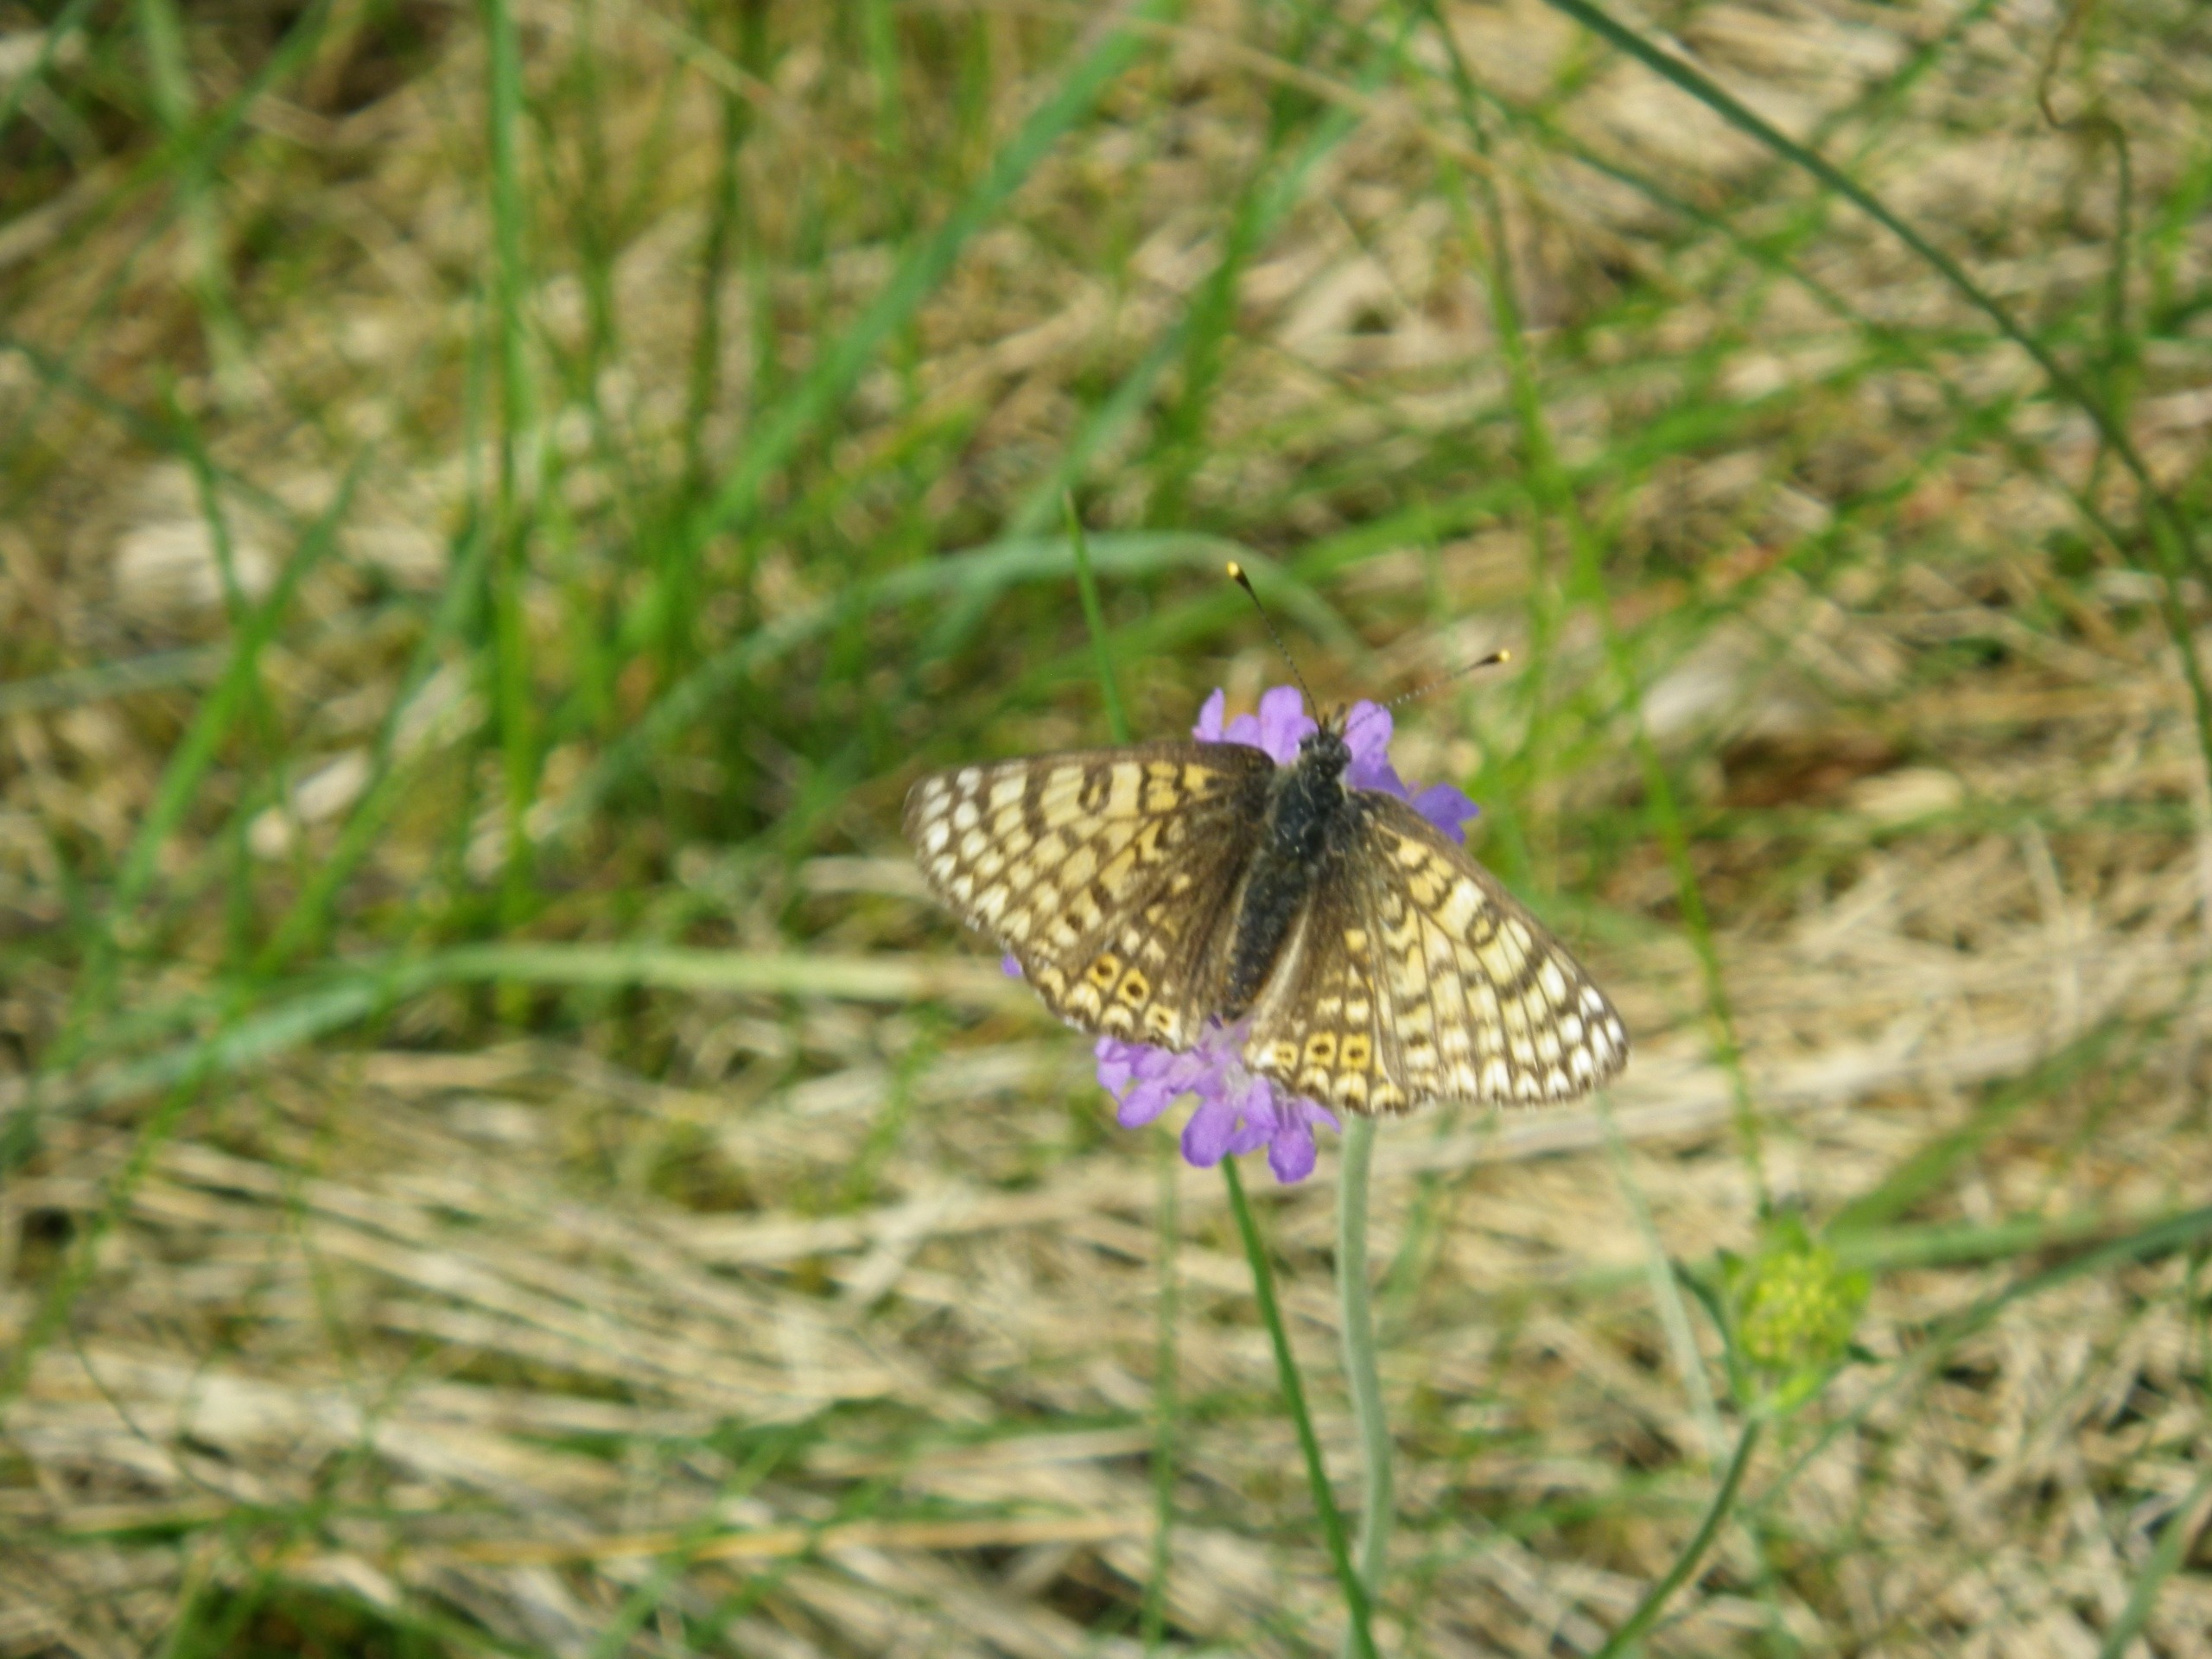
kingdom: Animalia
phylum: Arthropoda
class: Insecta
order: Lepidoptera
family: Nymphalidae
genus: Melitaea
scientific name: Melitaea cinxia
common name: Okkergul pletvinge
